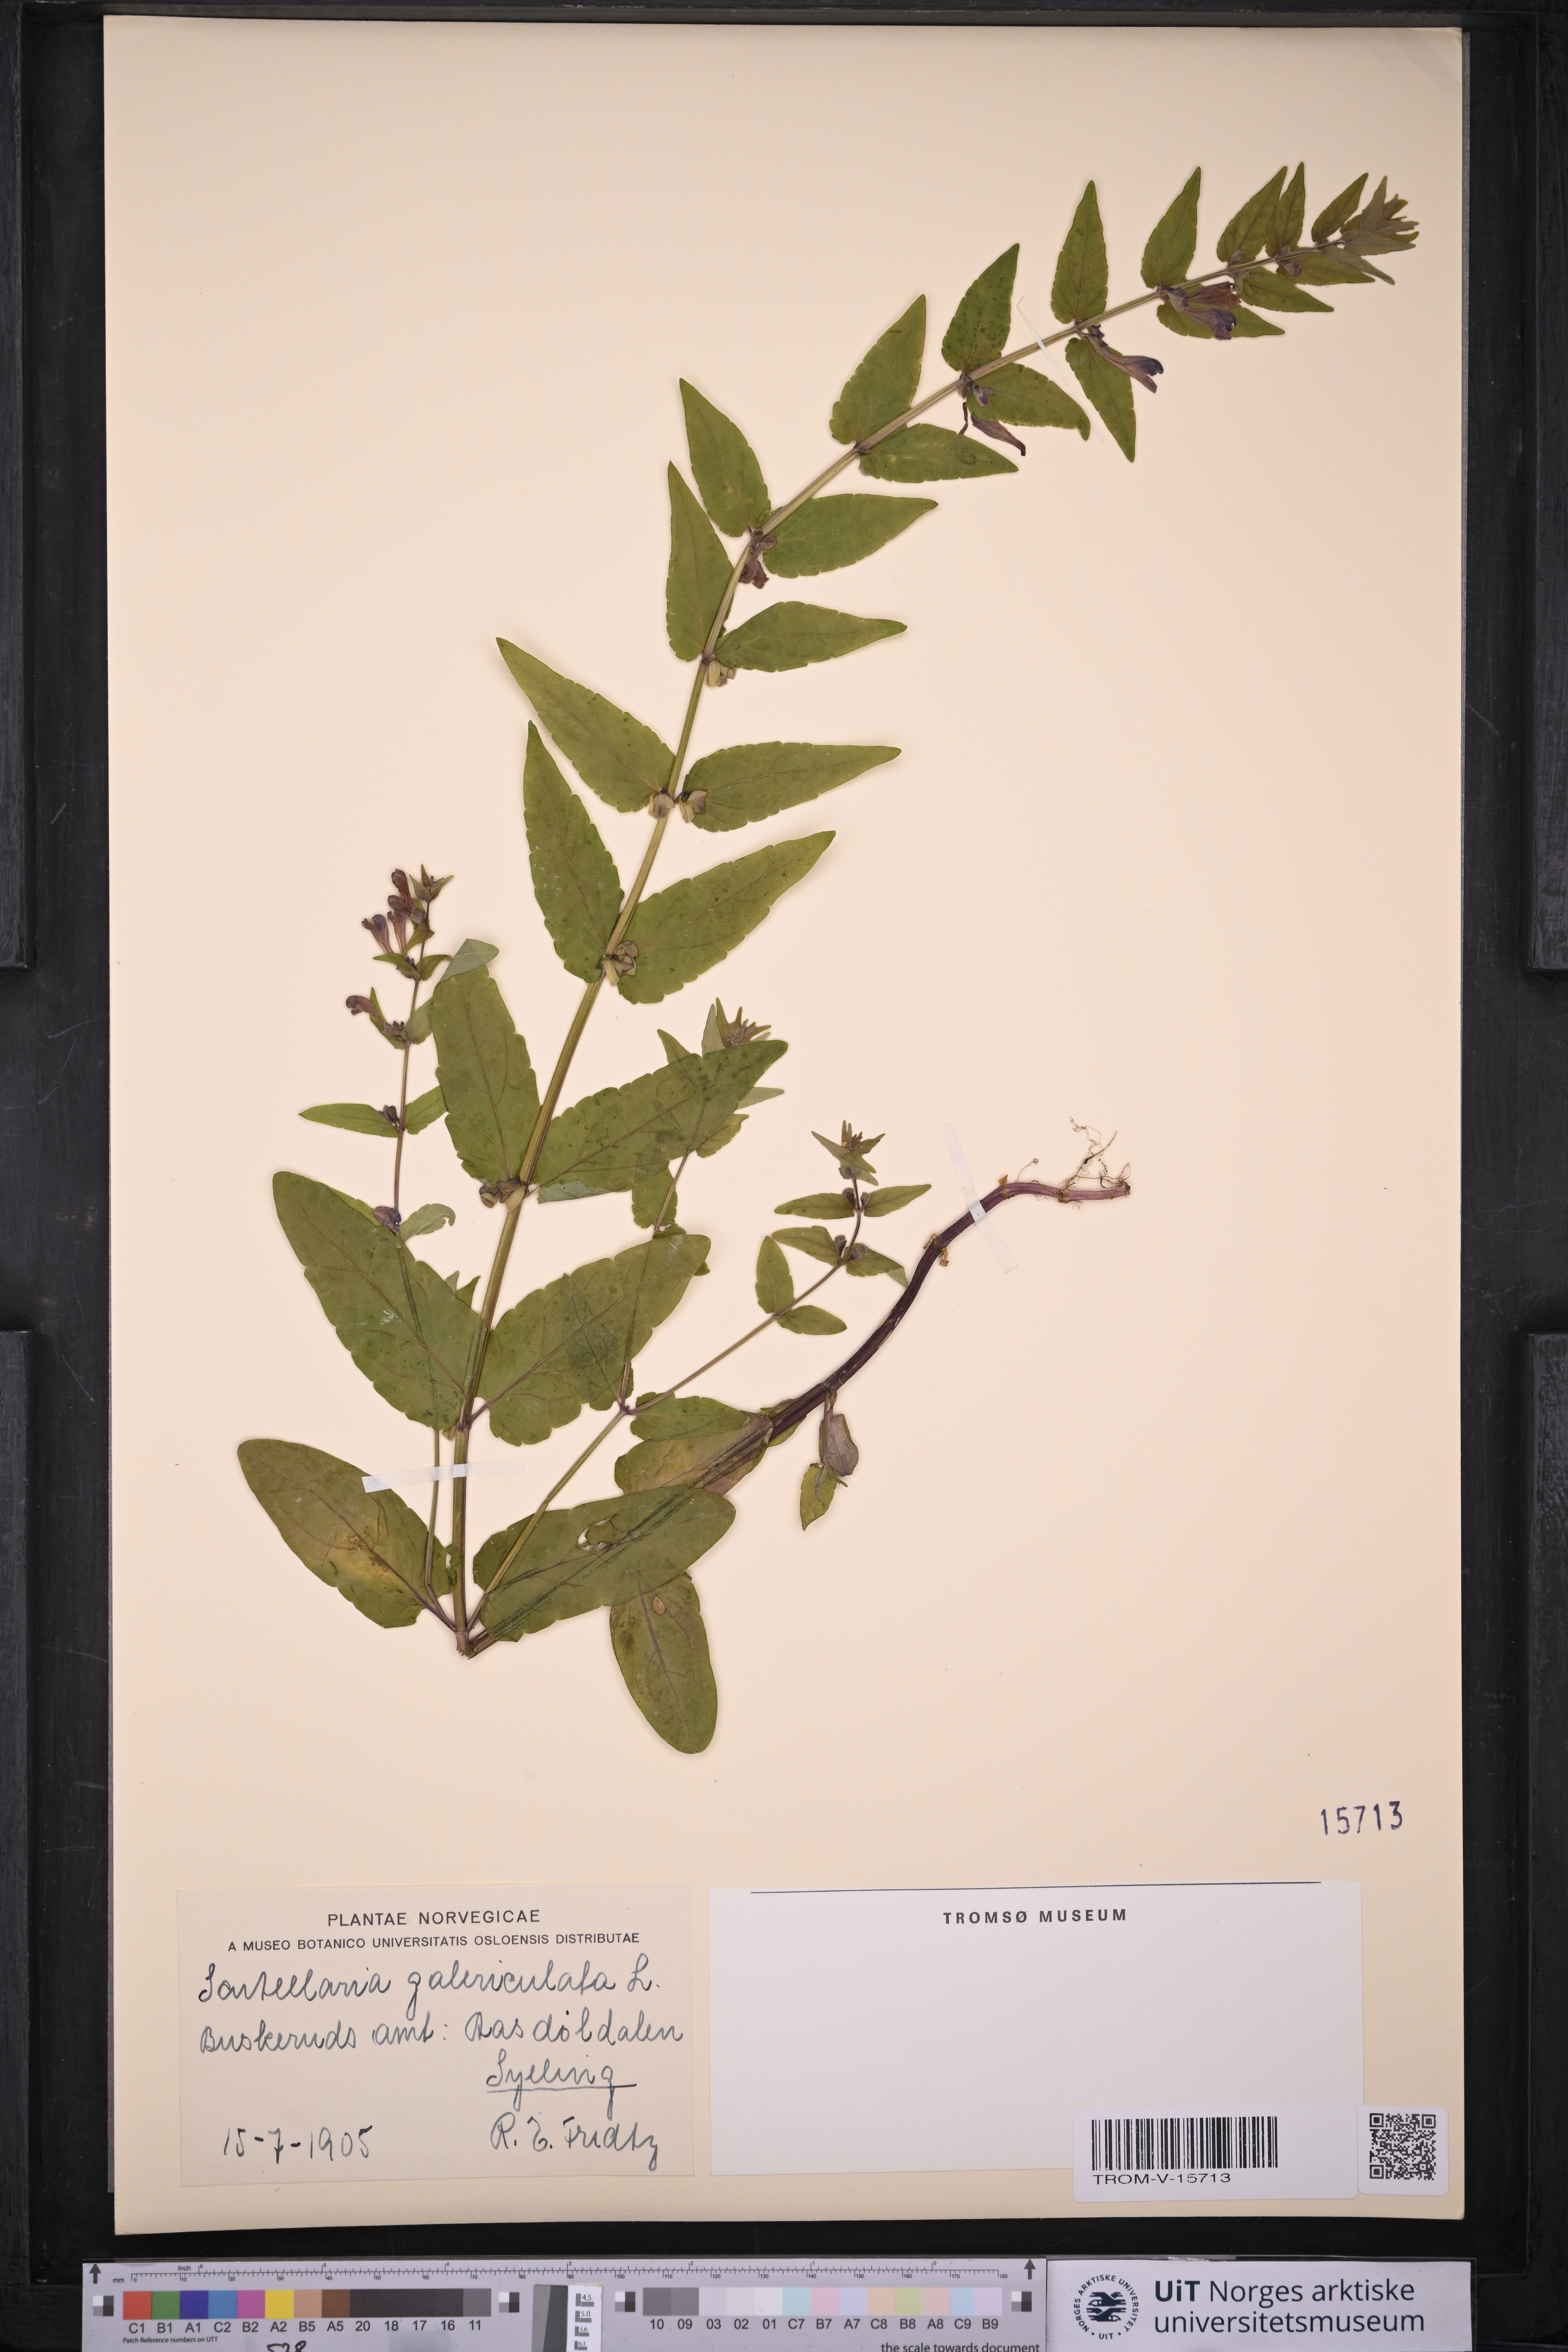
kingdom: Plantae
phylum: Tracheophyta
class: Magnoliopsida
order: Lamiales
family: Lamiaceae
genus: Scutellaria
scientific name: Scutellaria galericulata
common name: Skullcap
